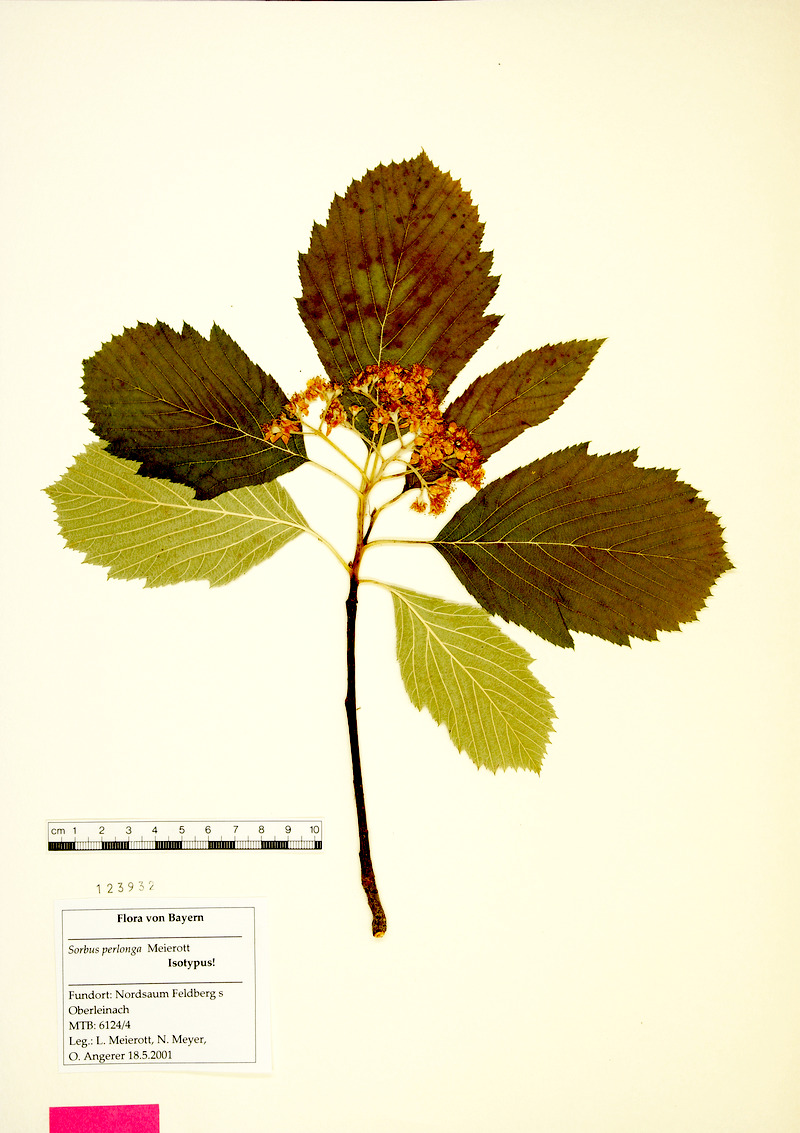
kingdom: Plantae
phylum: Tracheophyta
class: Magnoliopsida
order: Rosales
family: Rosaceae
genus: Karpatiosorbus
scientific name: Karpatiosorbus perlonga
